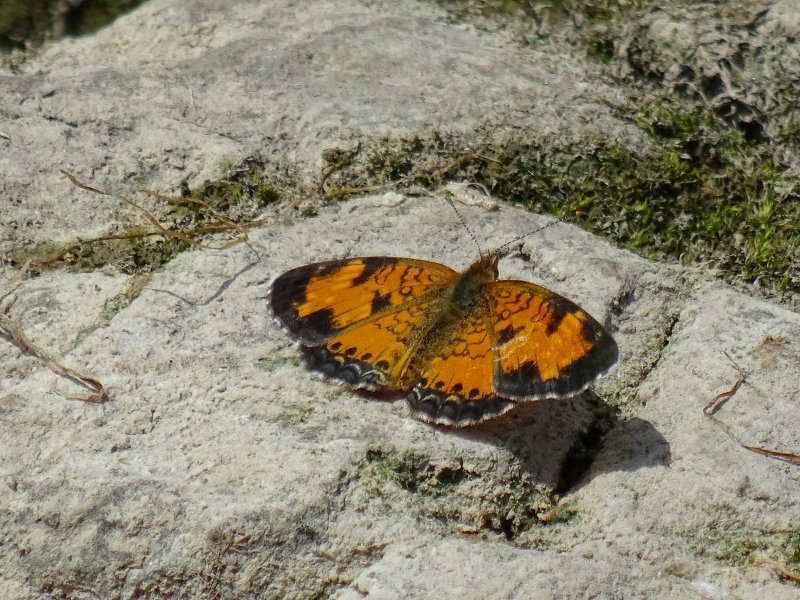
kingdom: Animalia
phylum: Arthropoda
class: Insecta
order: Lepidoptera
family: Nymphalidae
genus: Phyciodes
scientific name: Phyciodes tharos
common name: Northern Crescent
